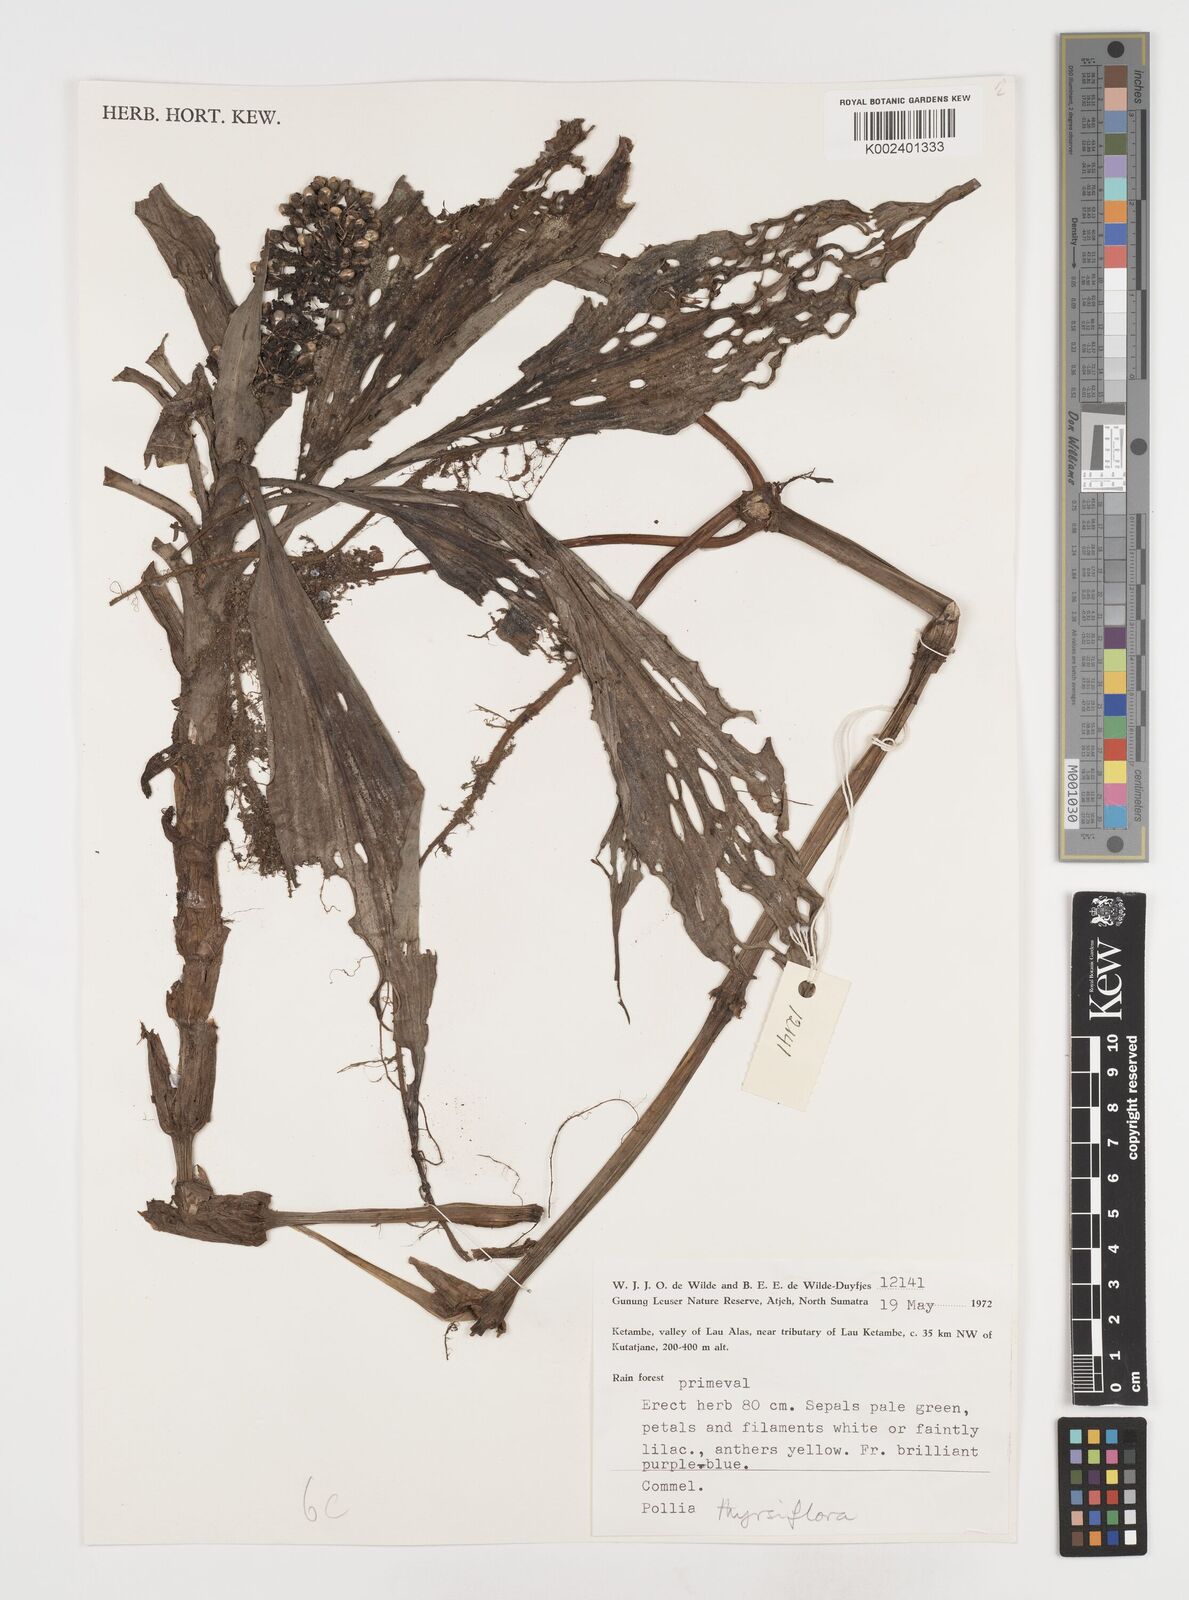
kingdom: Plantae
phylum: Tracheophyta
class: Liliopsida
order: Commelinales
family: Commelinaceae
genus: Pollia
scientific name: Pollia thyrsiflora
